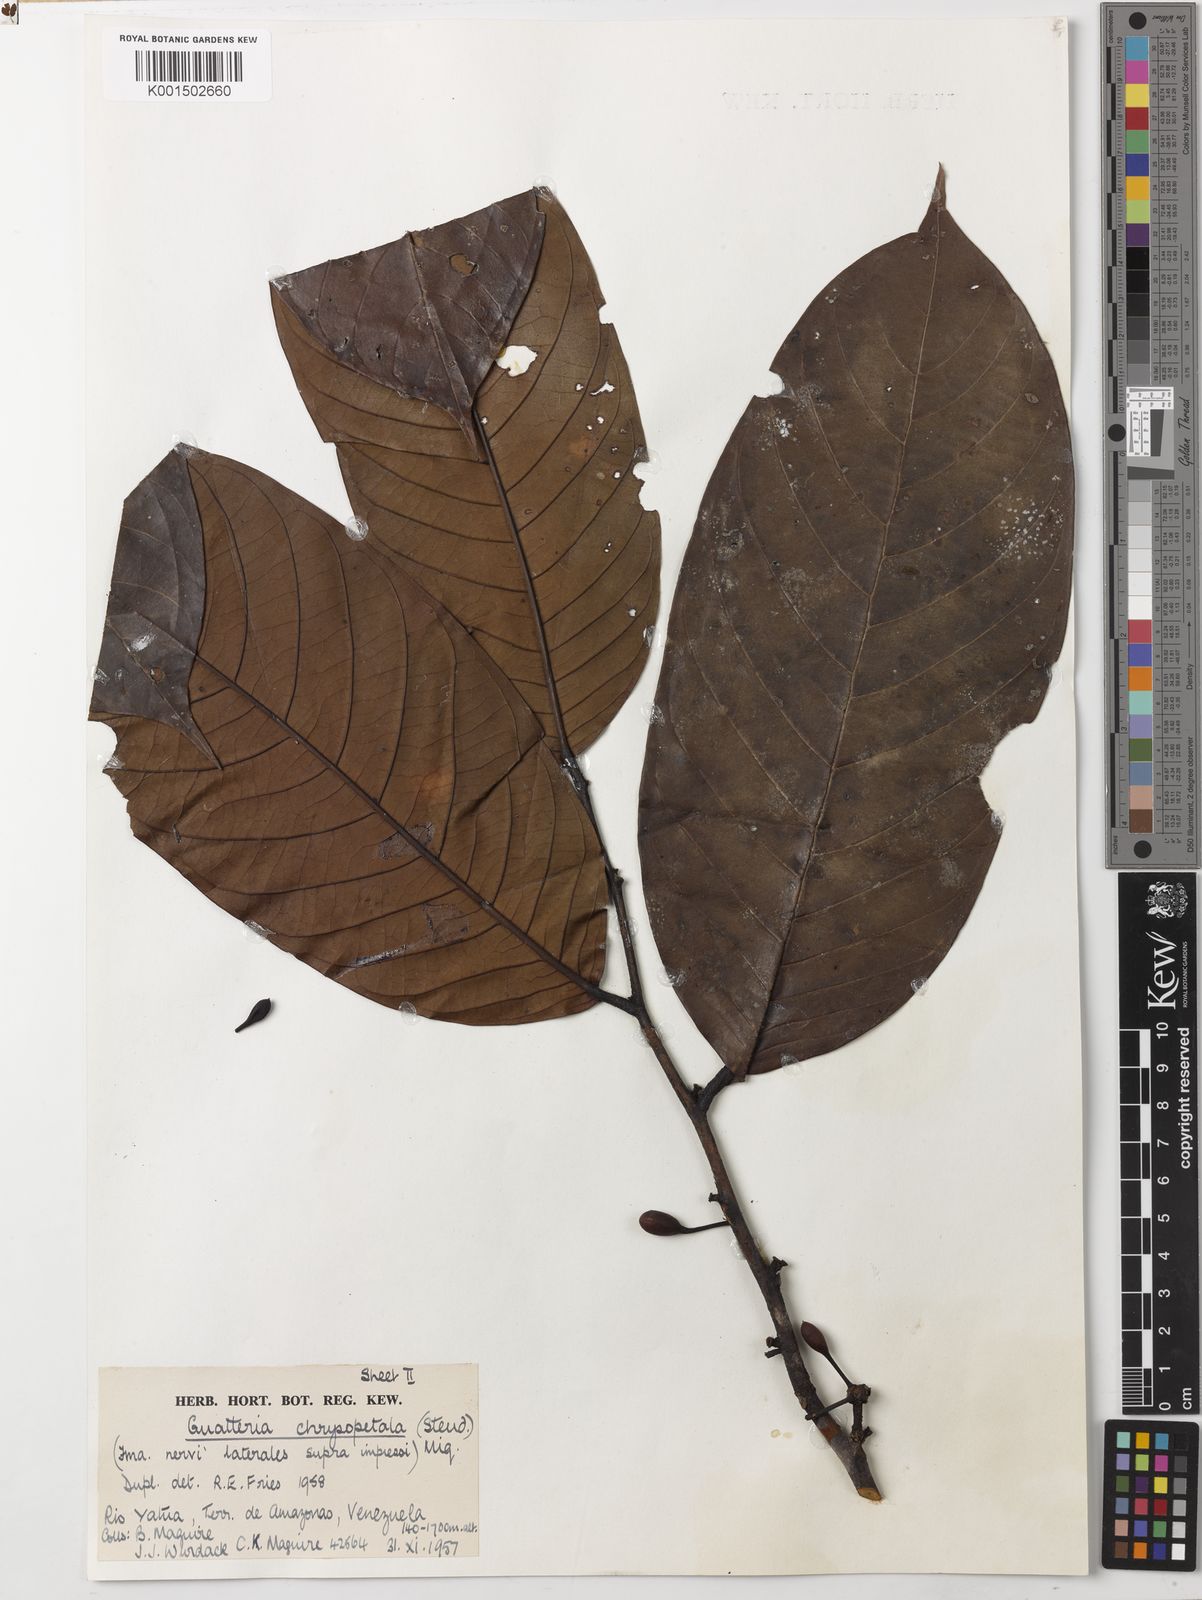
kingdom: Plantae
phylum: Tracheophyta
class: Magnoliopsida
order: Magnoliales
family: Annonaceae
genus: Guatteria
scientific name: Guatteria punctata
